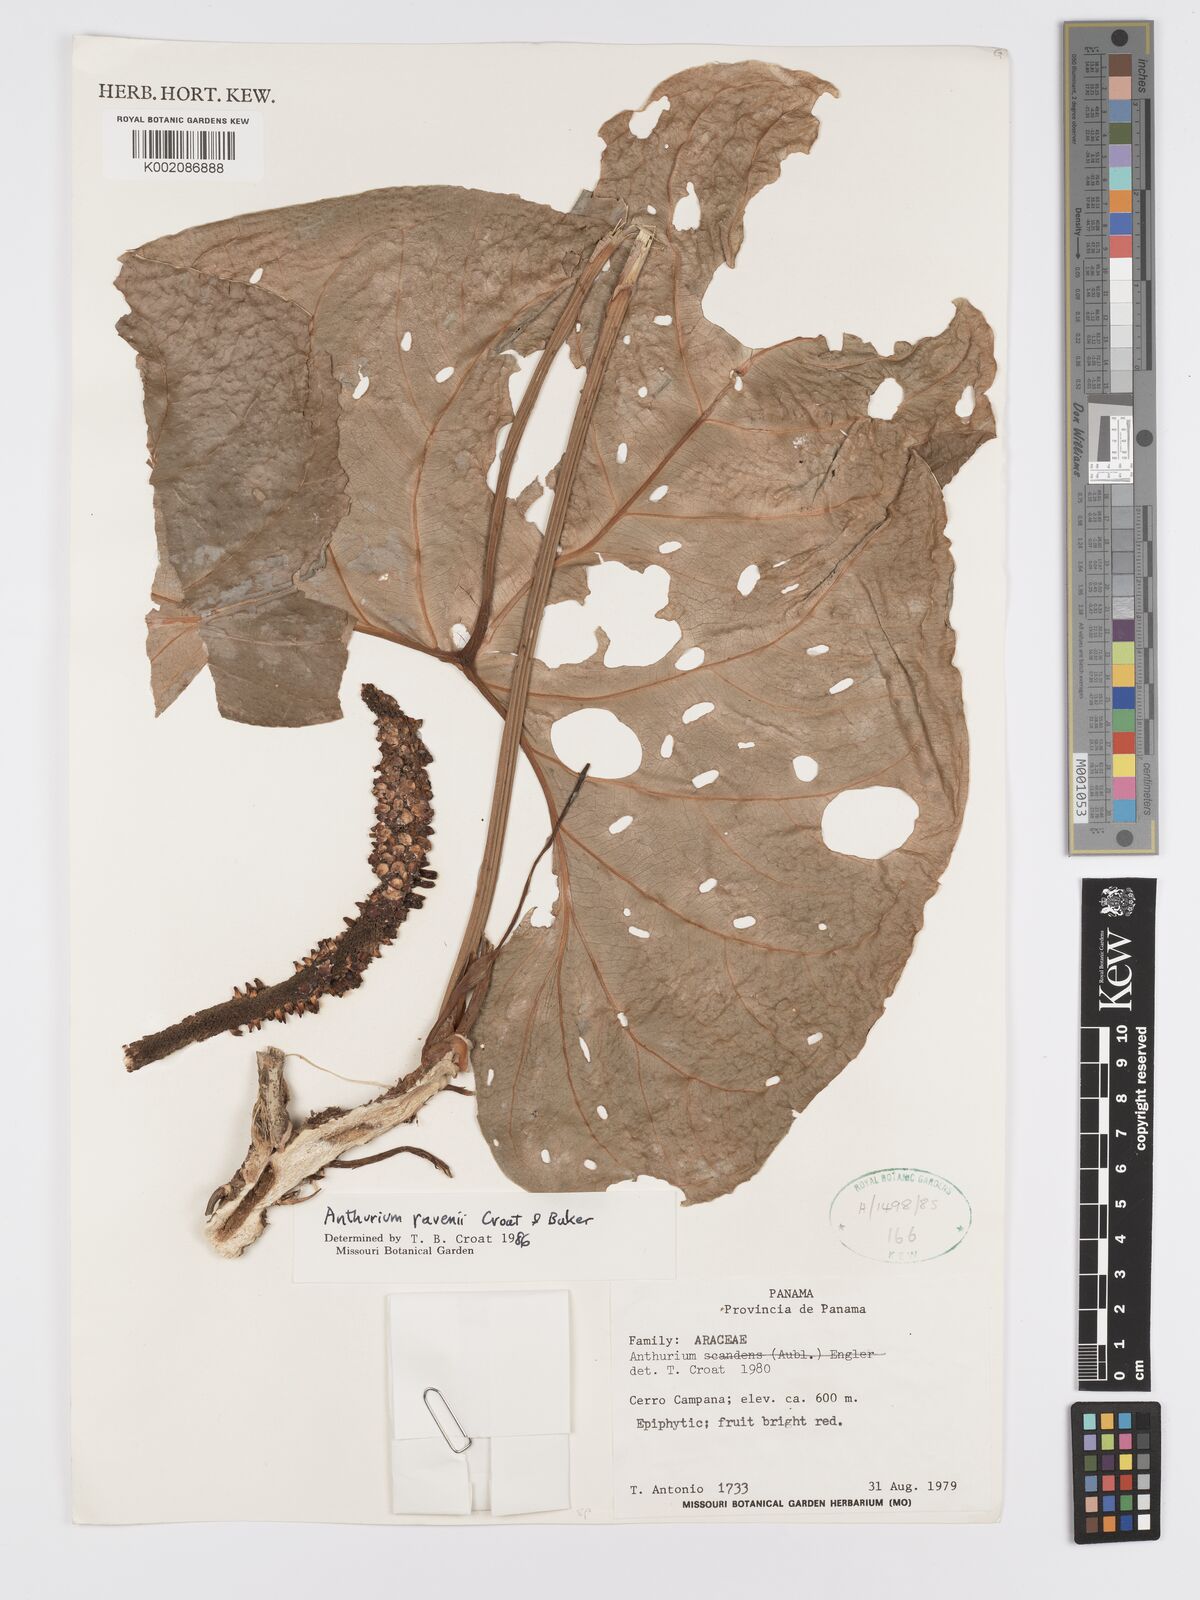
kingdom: Plantae
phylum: Tracheophyta
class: Liliopsida
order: Alismatales
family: Araceae
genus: Anthurium
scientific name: Anthurium ravenii
